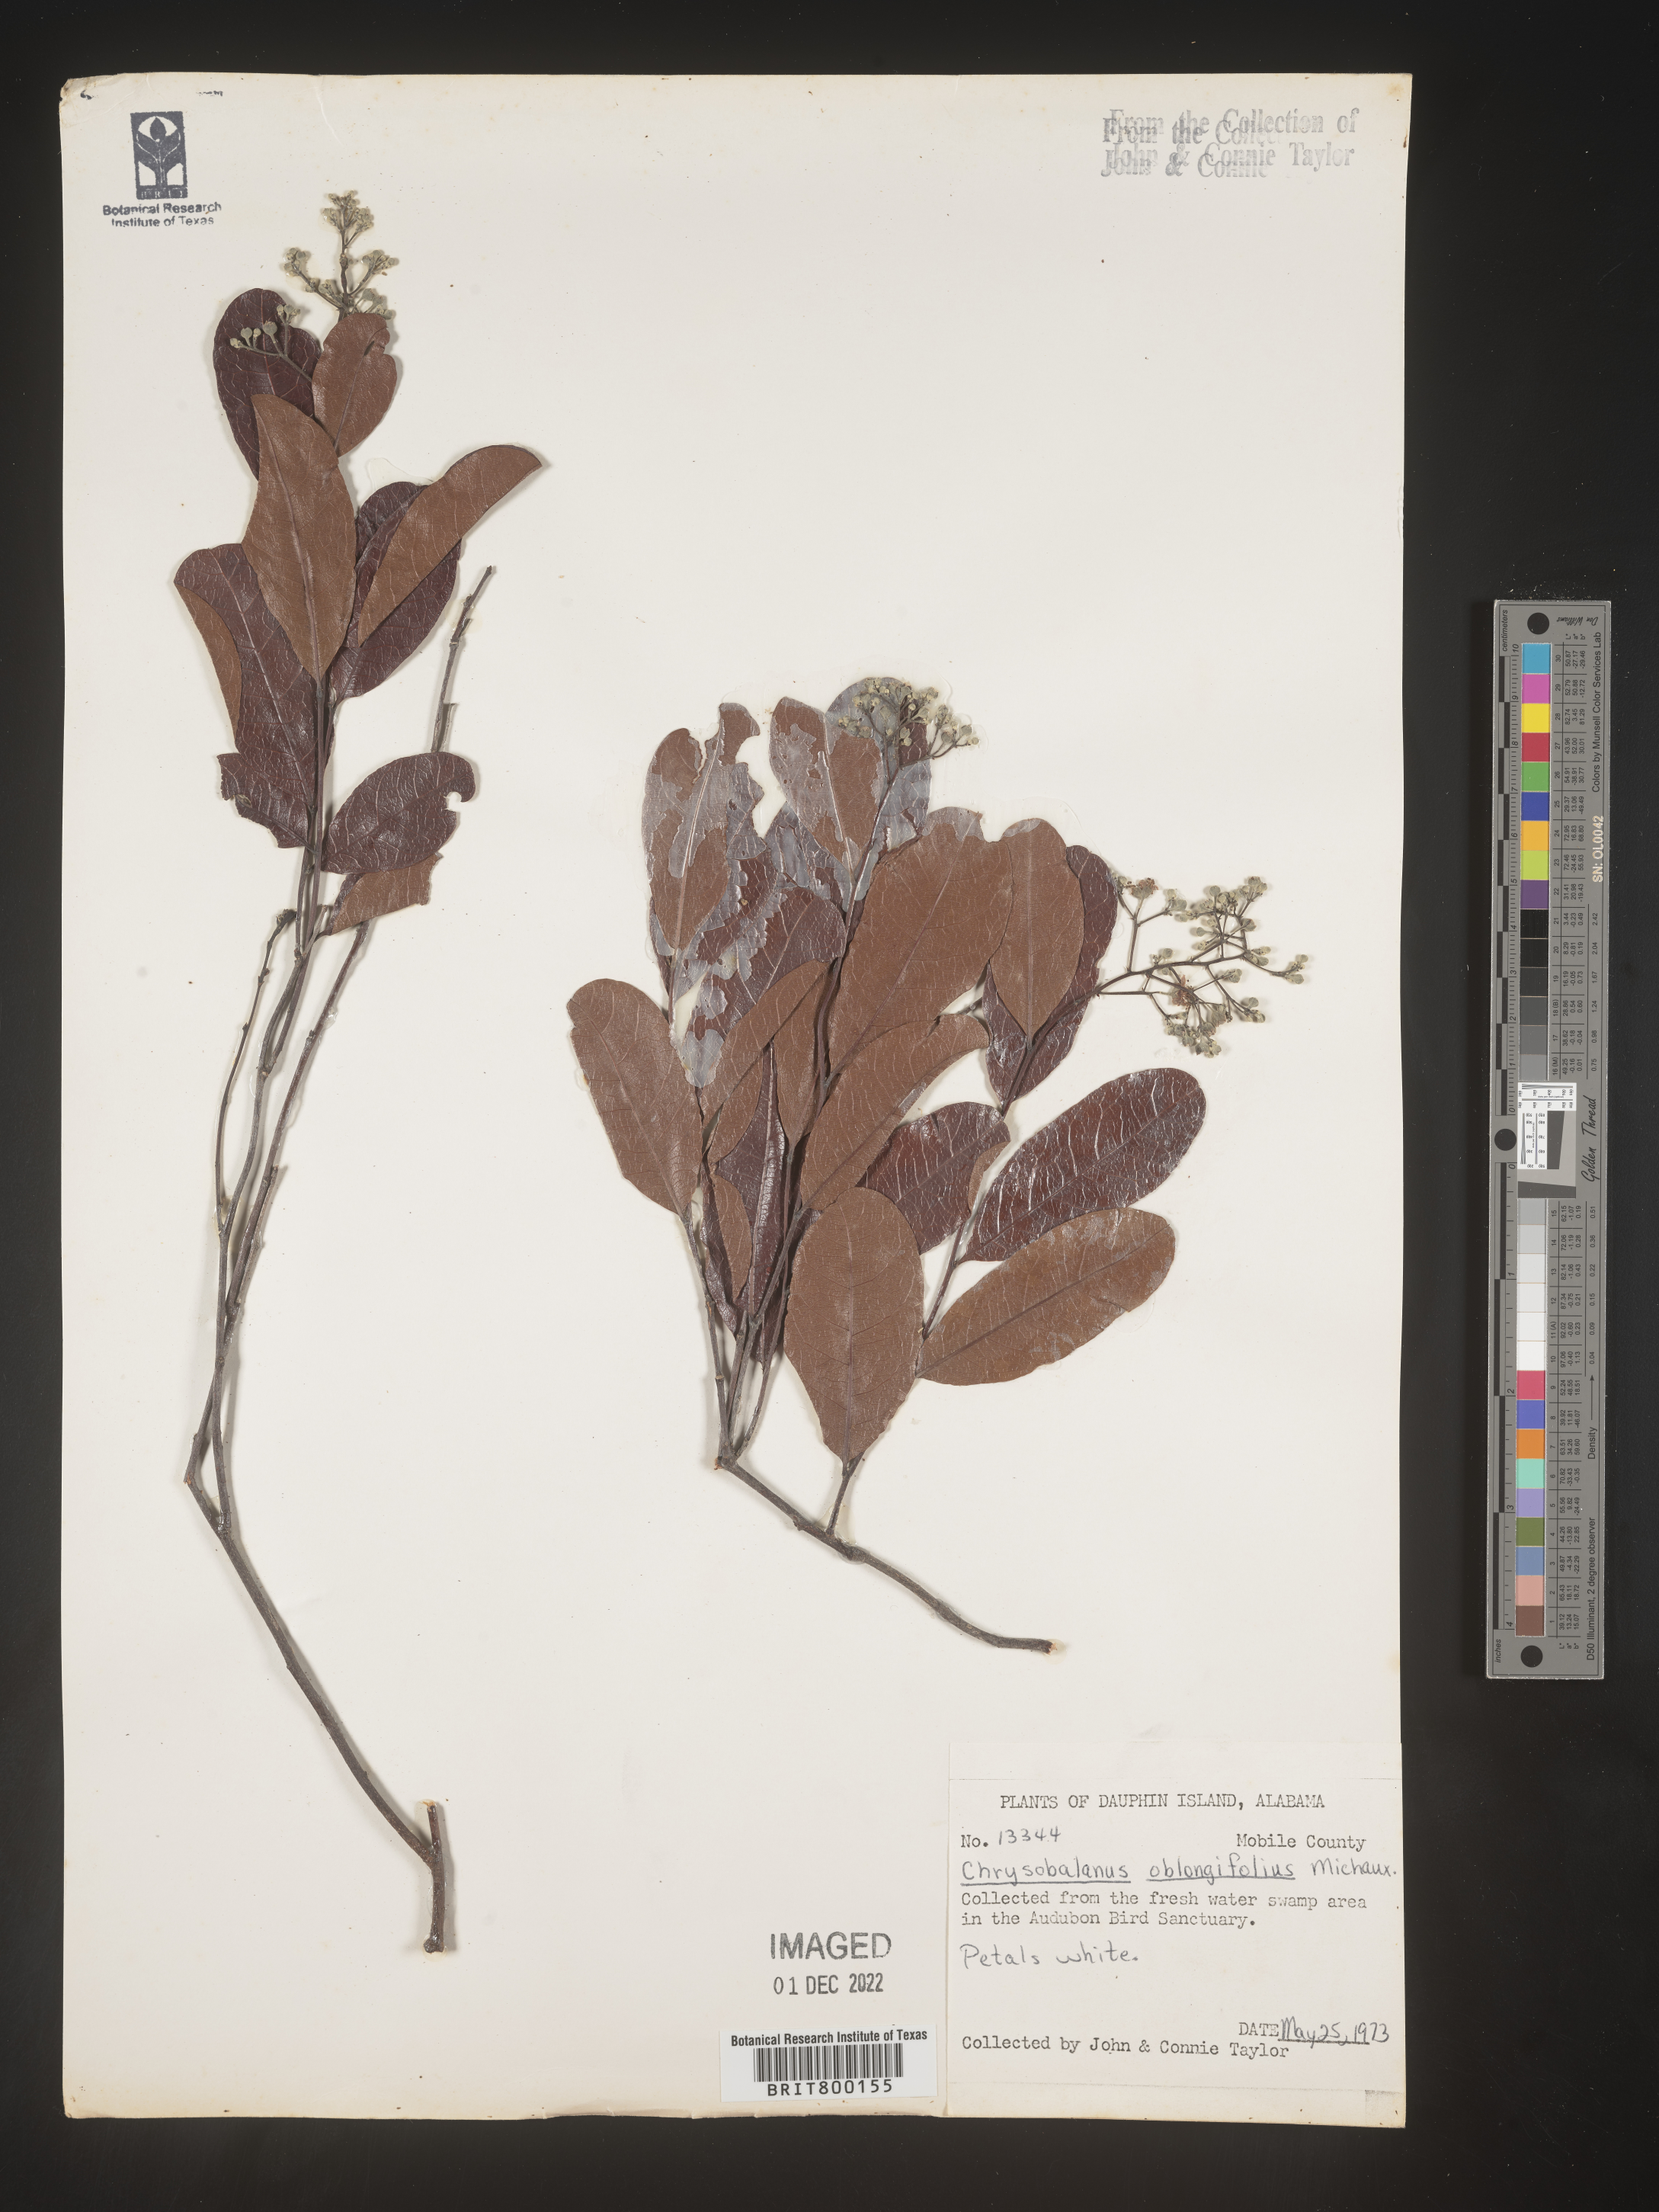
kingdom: Plantae
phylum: Tracheophyta
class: Magnoliopsida
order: Malpighiales
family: Chrysobalanaceae
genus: Geobalanus
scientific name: Geobalanus oblongifolius
